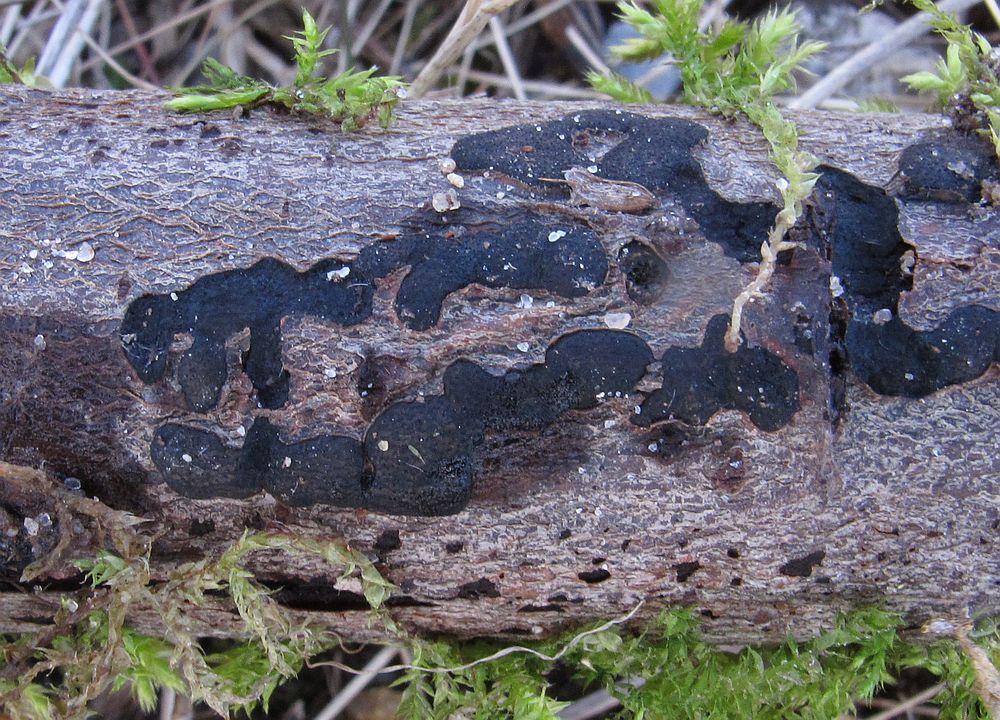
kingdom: Fungi
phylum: Ascomycota
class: Sordariomycetes
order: Xylariales
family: Diatrypaceae
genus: Diatrype
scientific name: Diatrype
